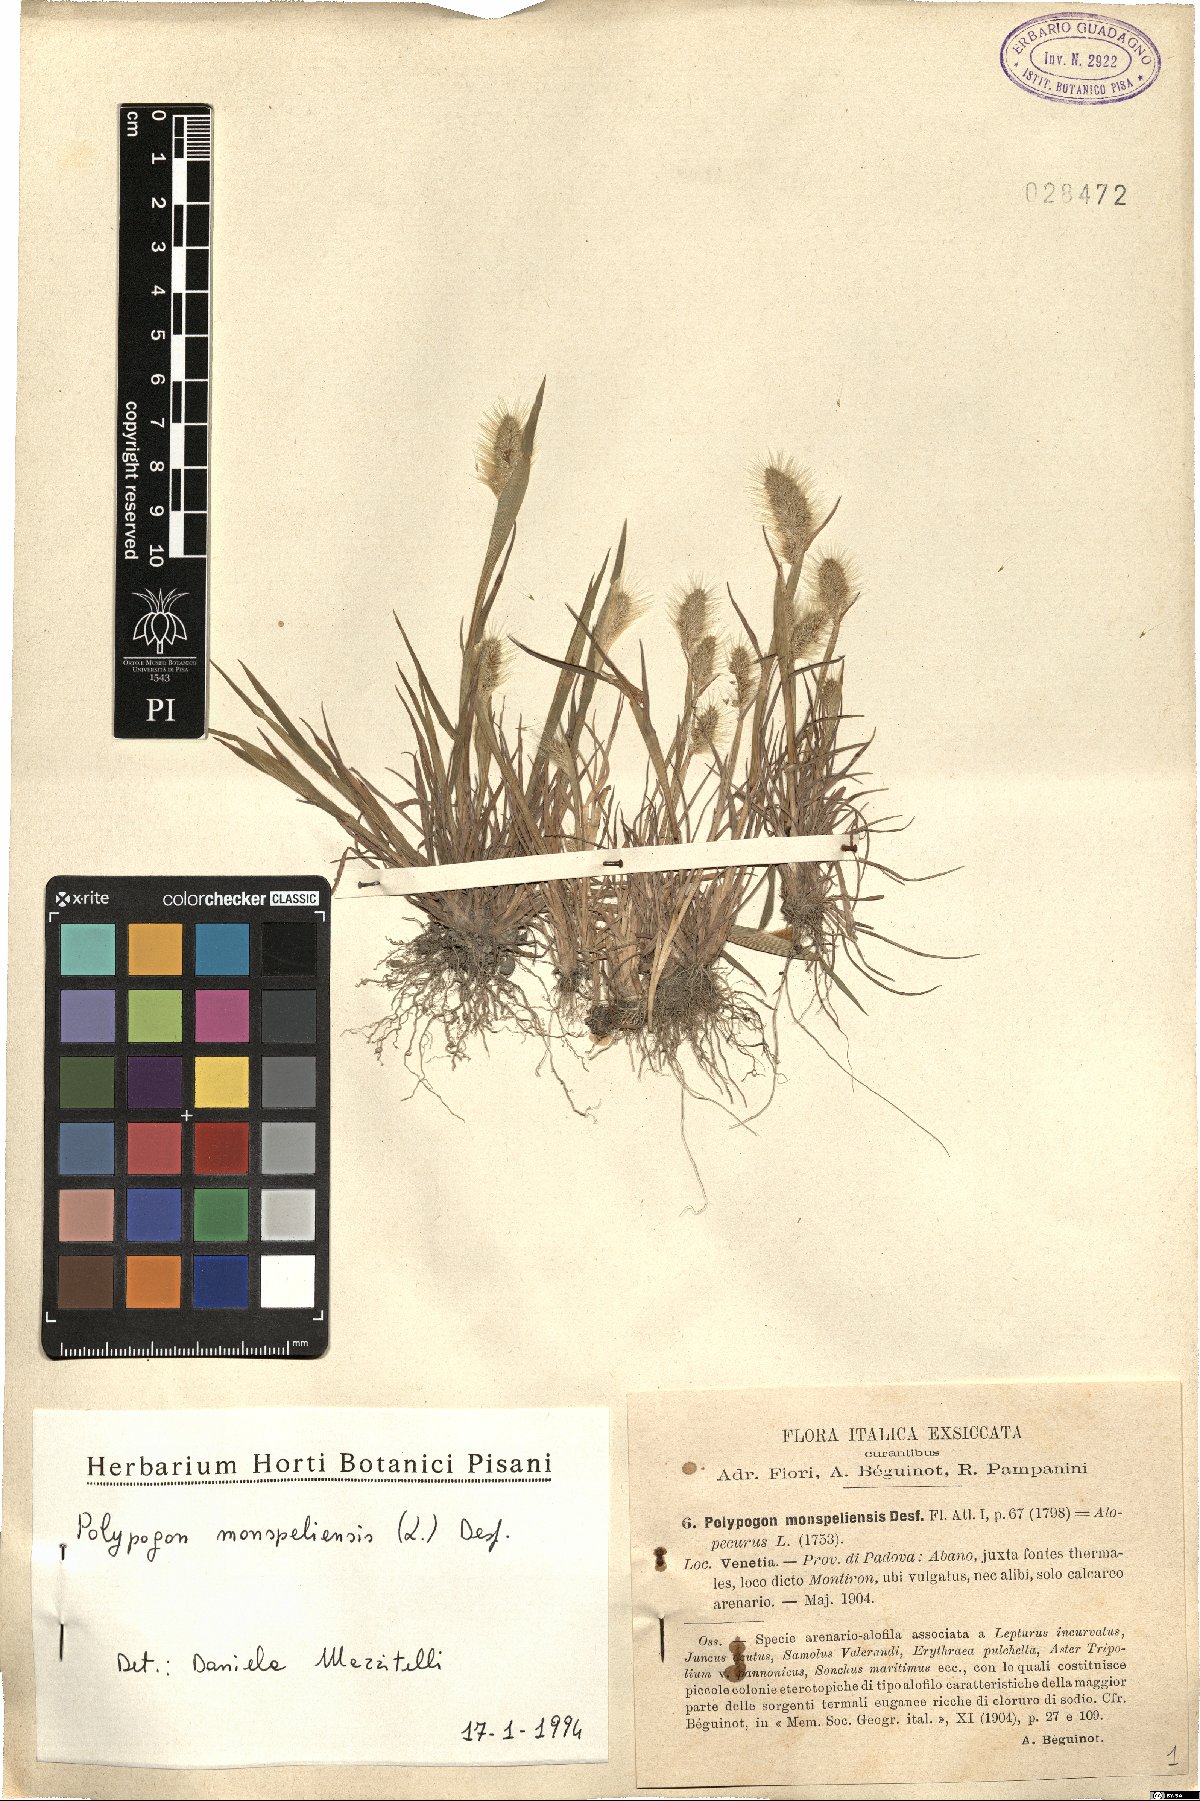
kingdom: Plantae
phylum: Tracheophyta
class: Liliopsida
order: Poales
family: Poaceae
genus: Polypogon
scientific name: Polypogon monspeliensis
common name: Annual rabbitsfoot grass
